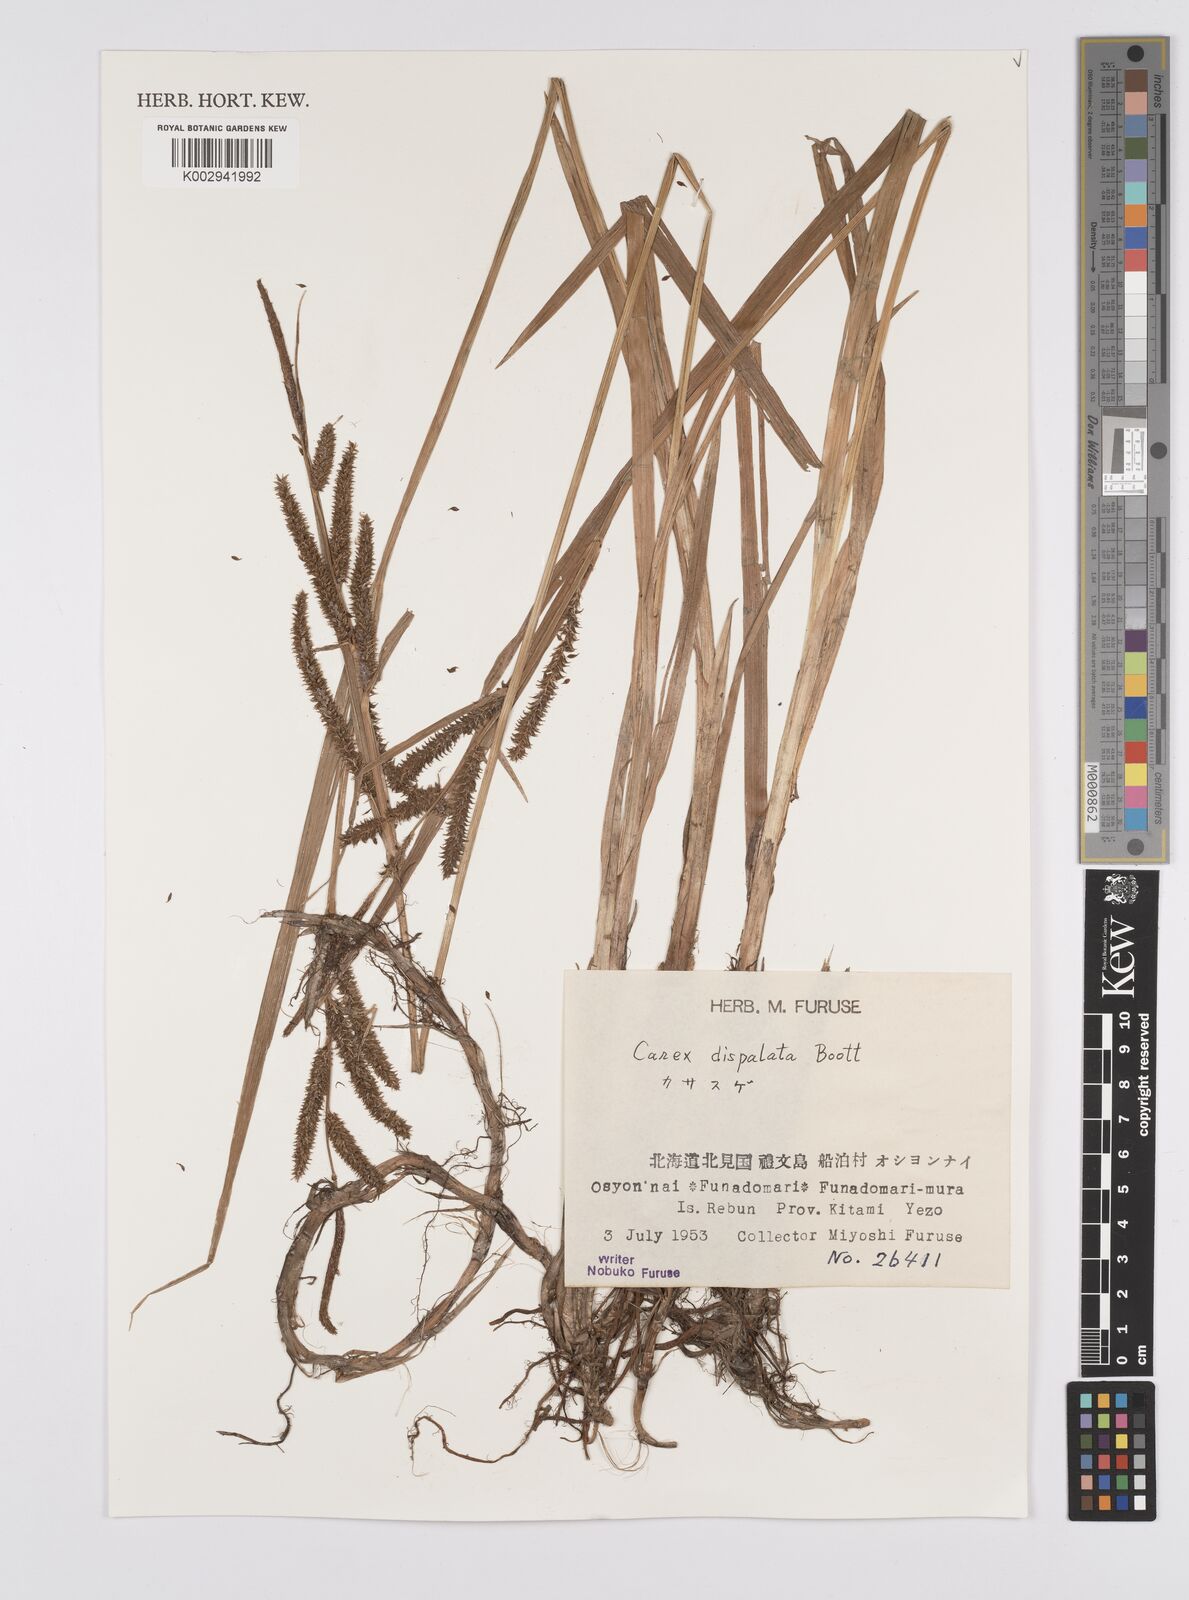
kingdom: Plantae
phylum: Tracheophyta
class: Liliopsida
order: Poales
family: Cyperaceae
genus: Carex
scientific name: Carex dispalata
